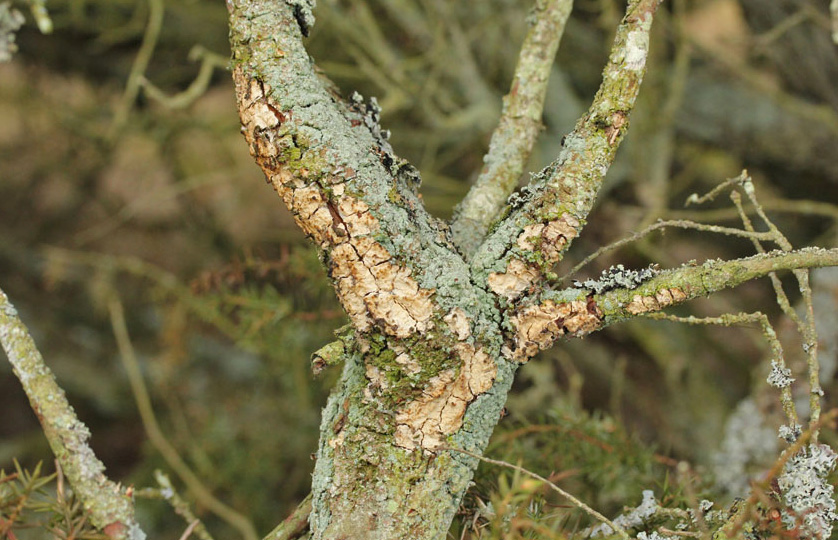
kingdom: Fungi
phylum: Basidiomycota
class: Agaricomycetes
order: Agaricales
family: Radulomycetaceae
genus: Radulomyces
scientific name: Radulomyces rickii
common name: rundsporet naftalinskind
